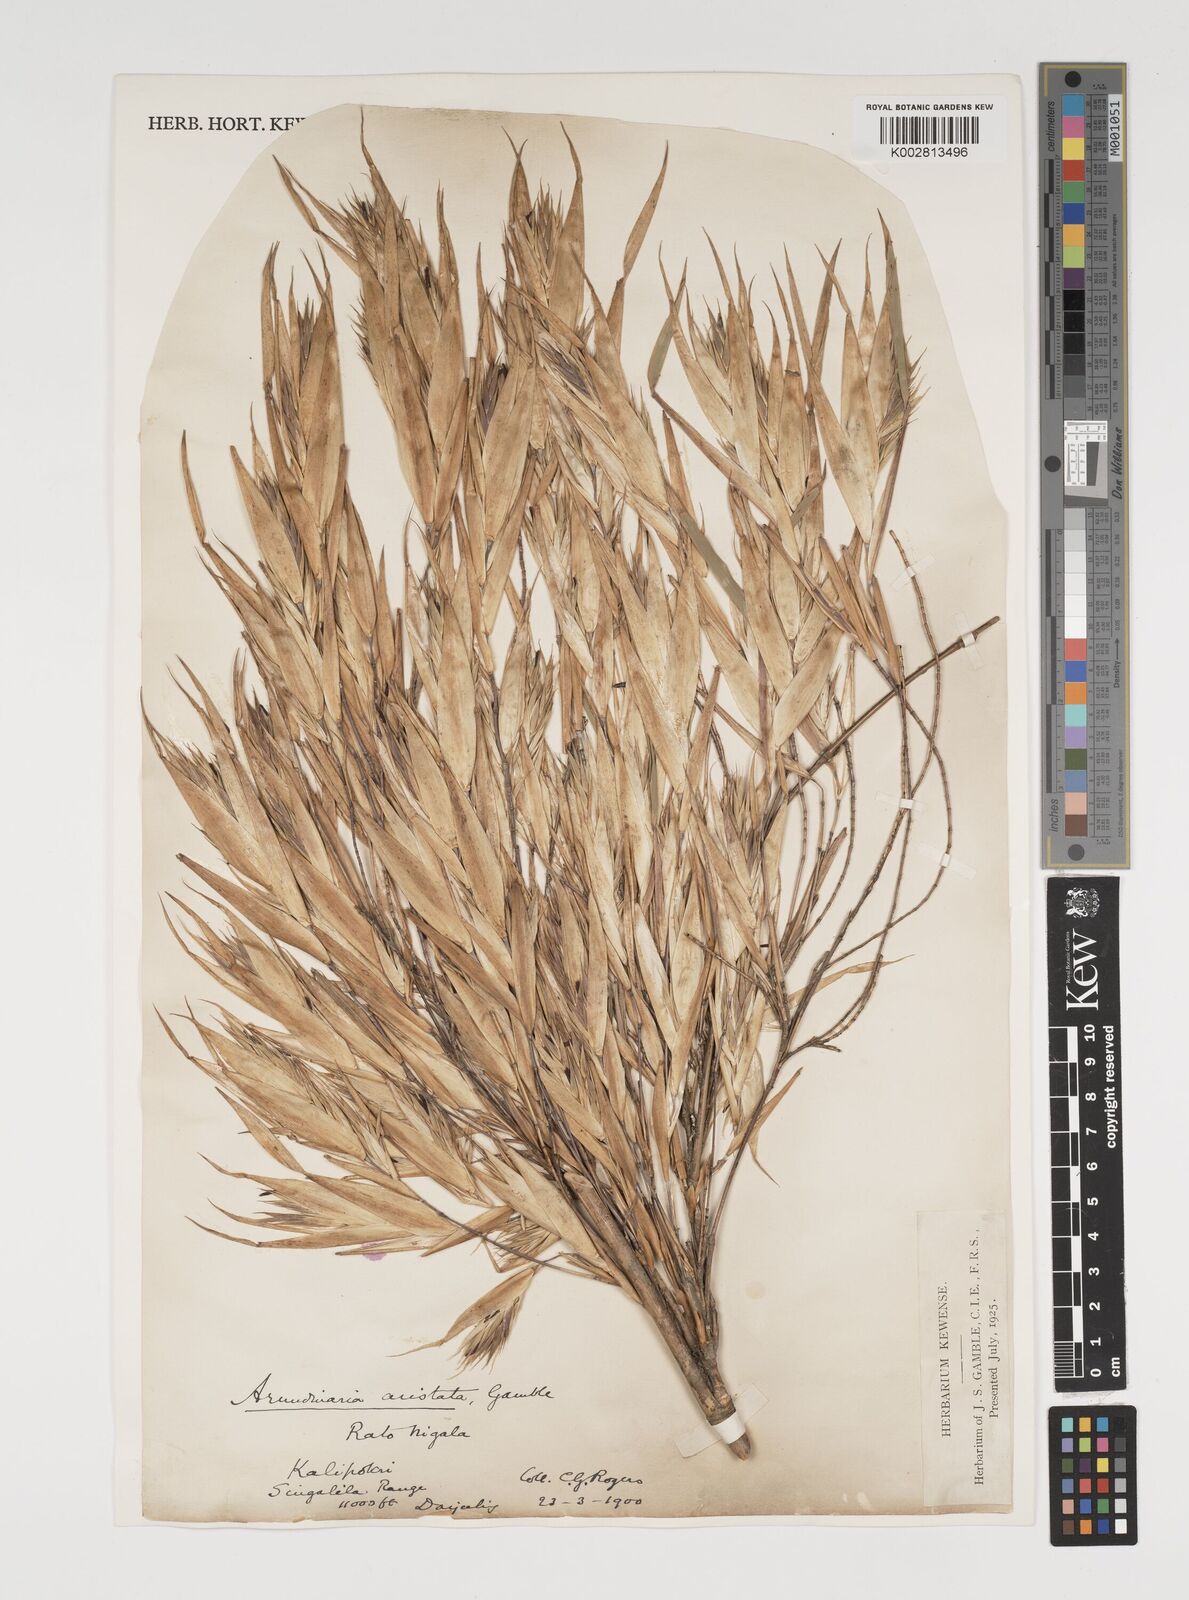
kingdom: Plantae
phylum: Tracheophyta
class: Liliopsida
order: Poales
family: Poaceae
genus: Thamnocalamus
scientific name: Thamnocalamus spathiflorus
